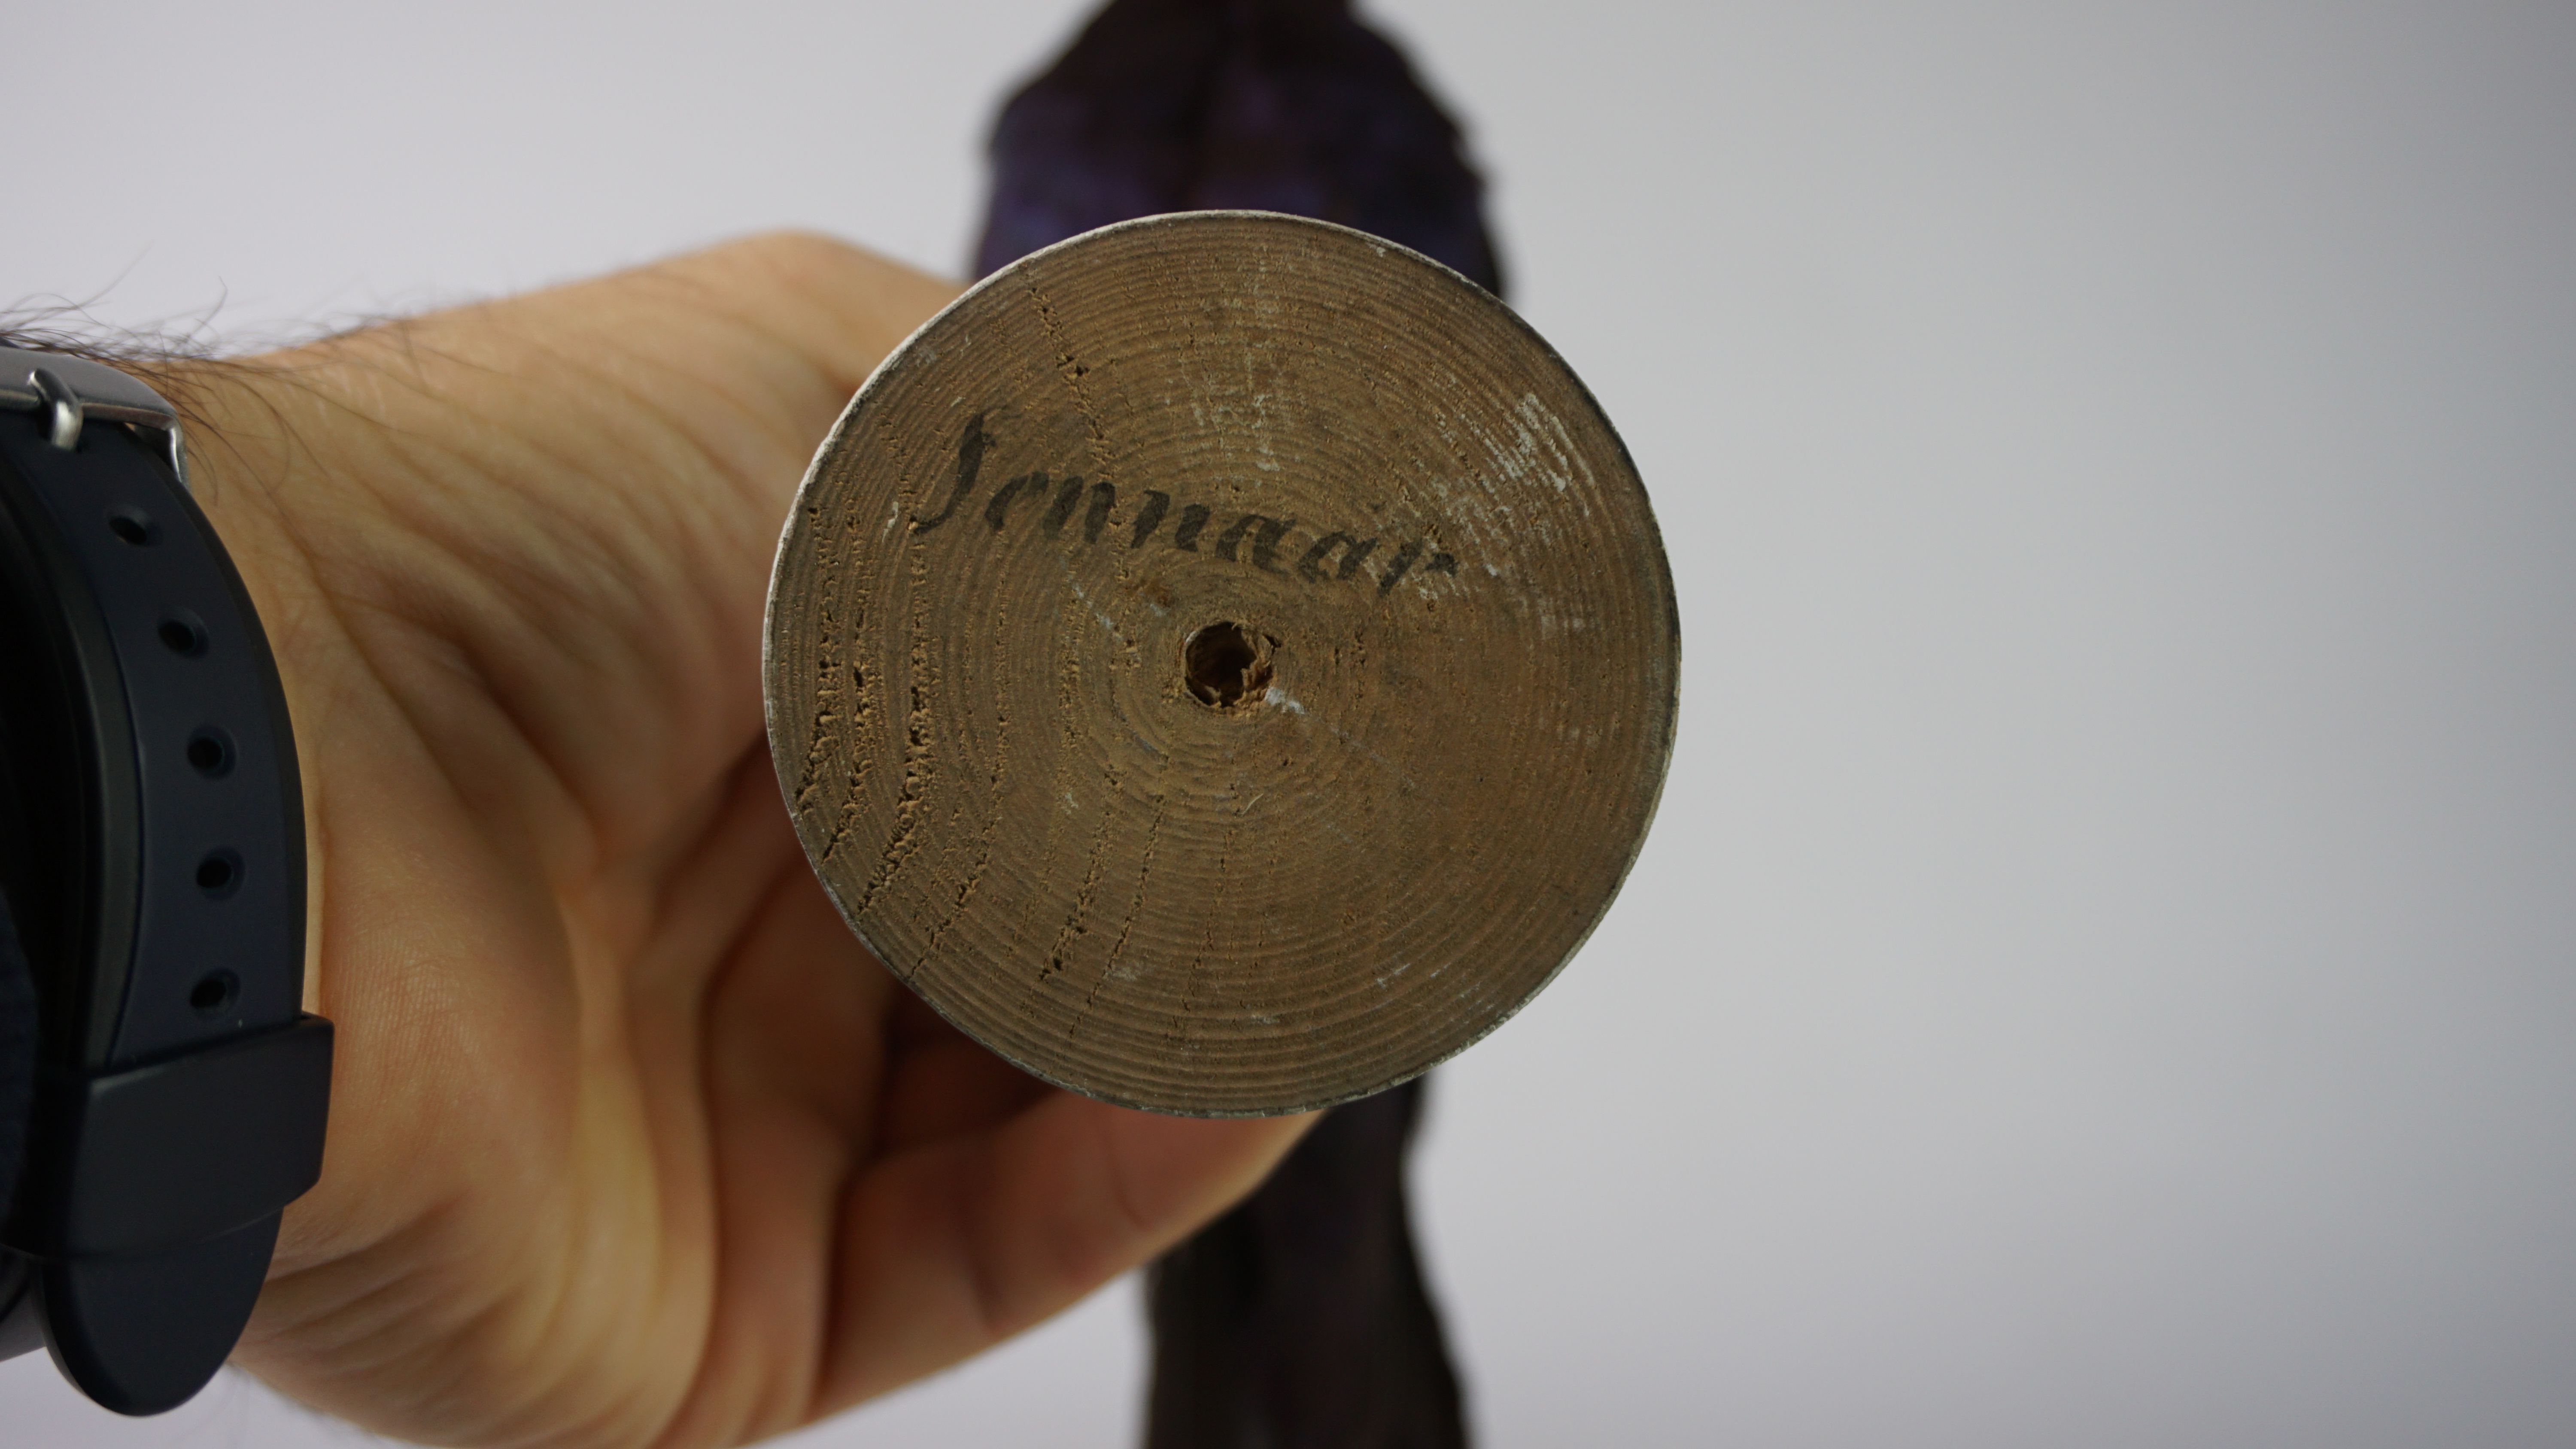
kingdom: Animalia
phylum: Chordata
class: Aves
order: Passeriformes
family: Sturnidae
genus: Lamprotornis
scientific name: Lamprotornis purpuroptera
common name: Rüppell's starling
